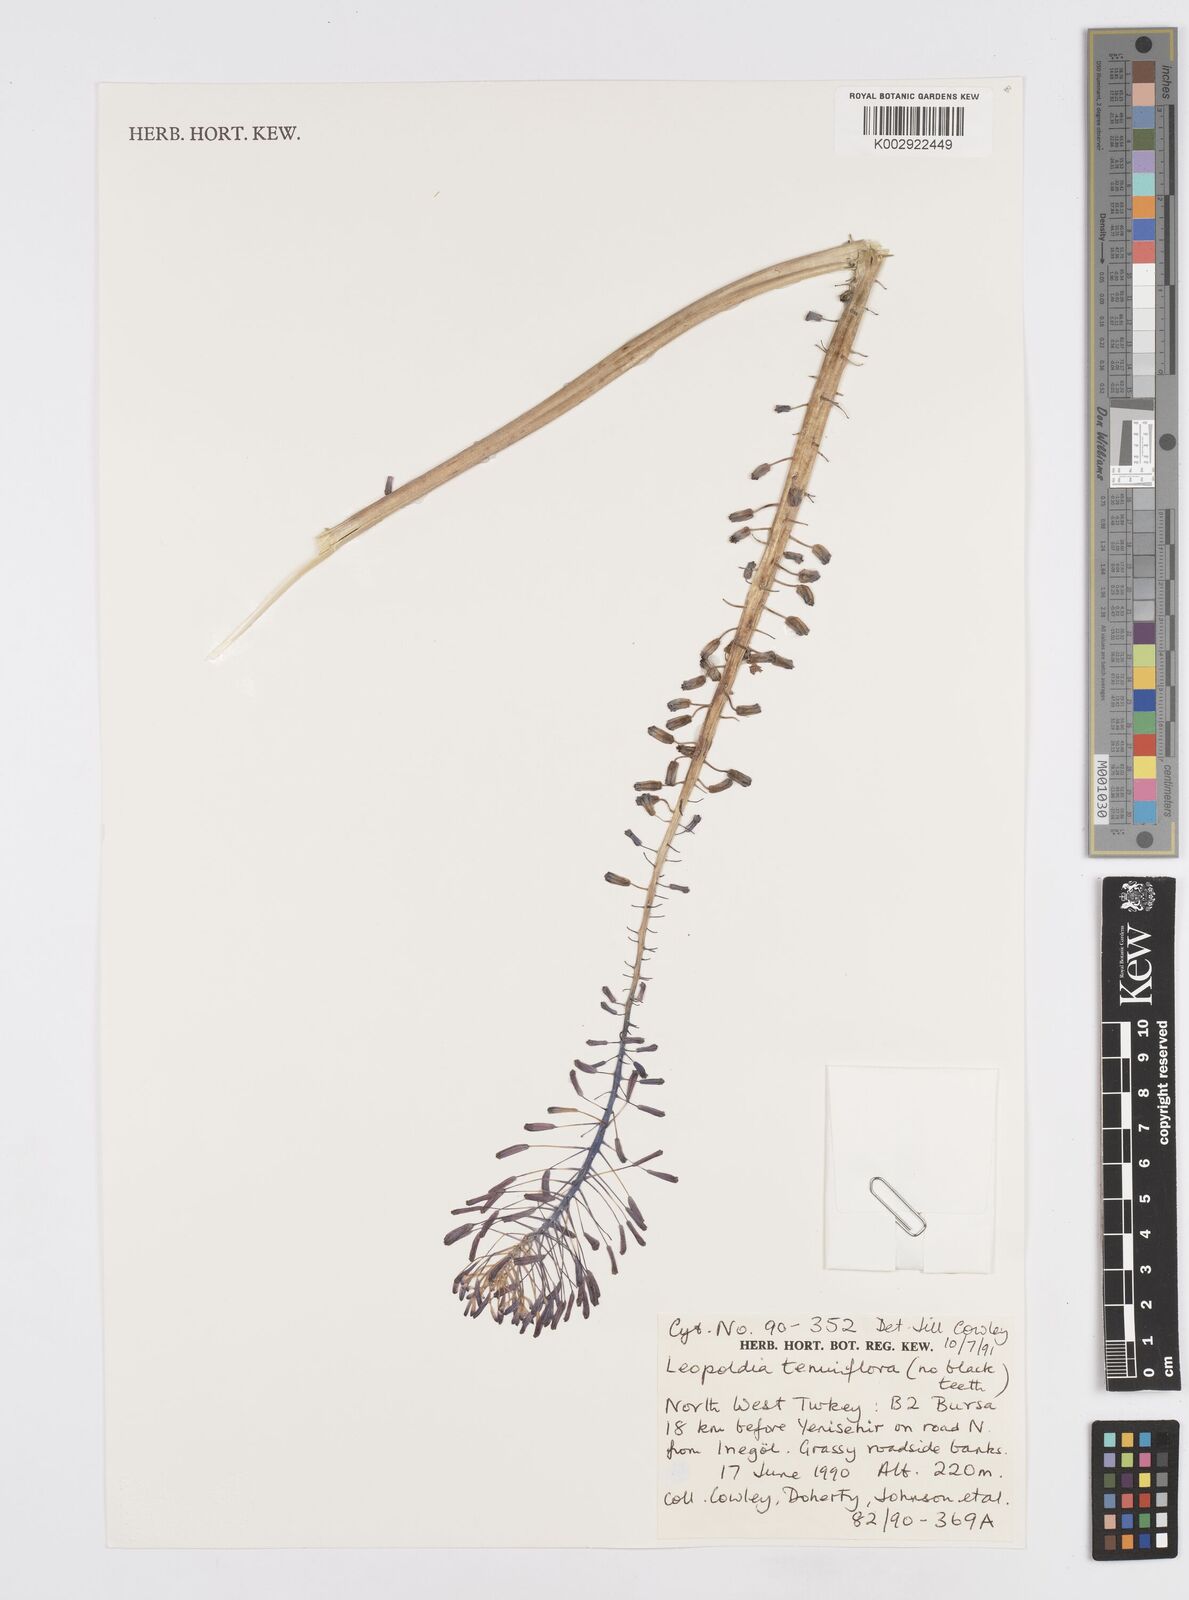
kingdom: Plantae
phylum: Tracheophyta
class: Liliopsida
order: Asparagales
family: Asparagaceae
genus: Muscari
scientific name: Muscari tenuiflorum
